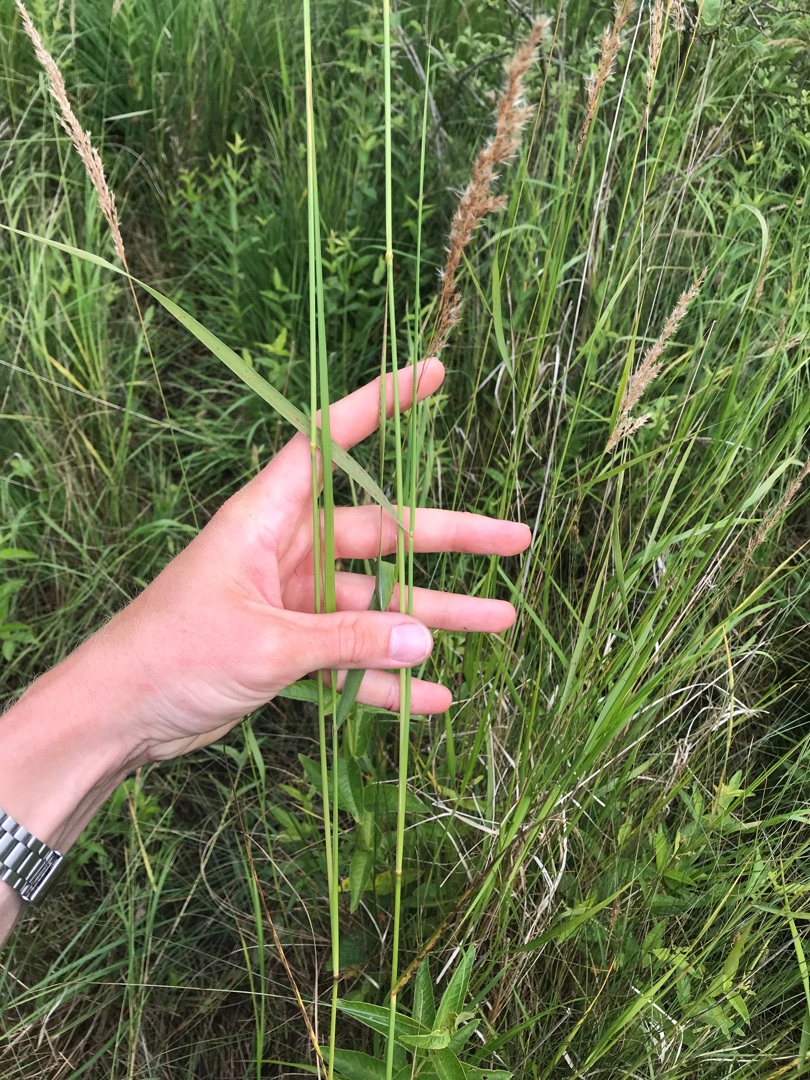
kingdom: Plantae
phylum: Tracheophyta
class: Liliopsida
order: Poales
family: Poaceae
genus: Calamagrostis
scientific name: Calamagrostis canescens
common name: Eng-rørhvene
